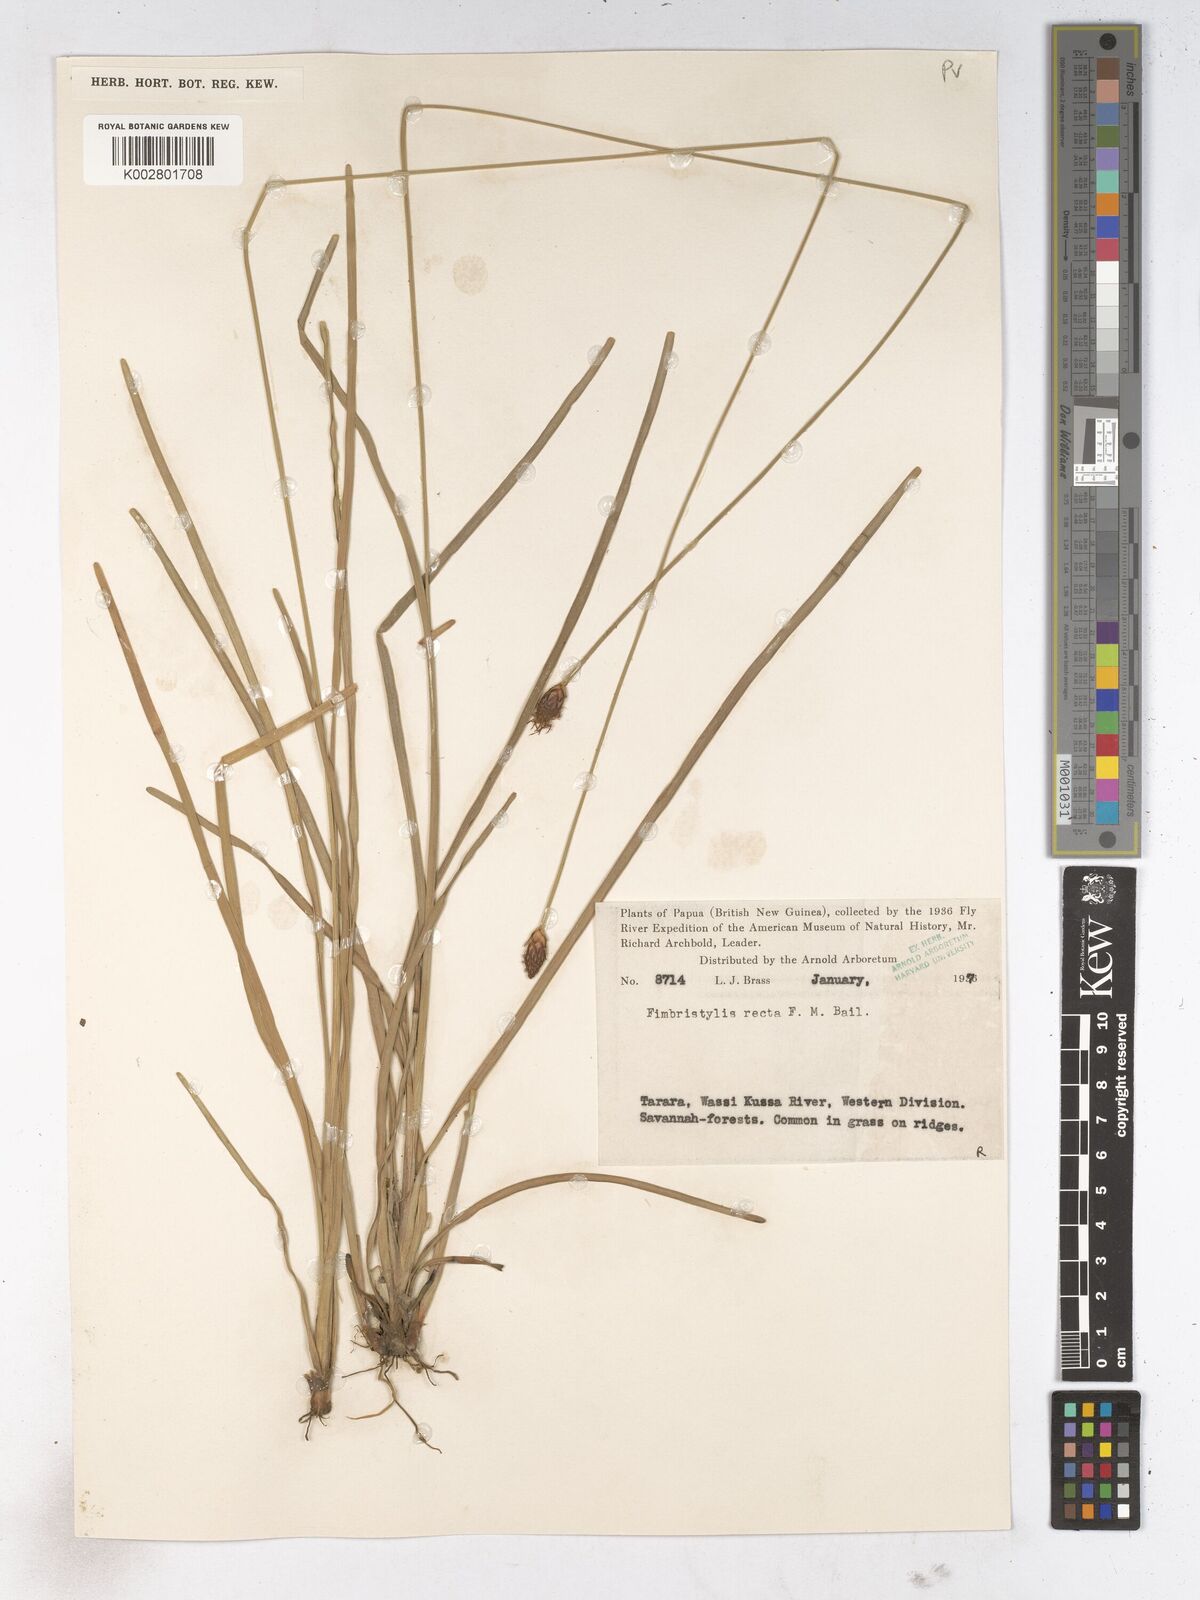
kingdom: Plantae
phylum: Tracheophyta
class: Liliopsida
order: Poales
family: Cyperaceae
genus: Fimbristylis
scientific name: Fimbristylis recta
